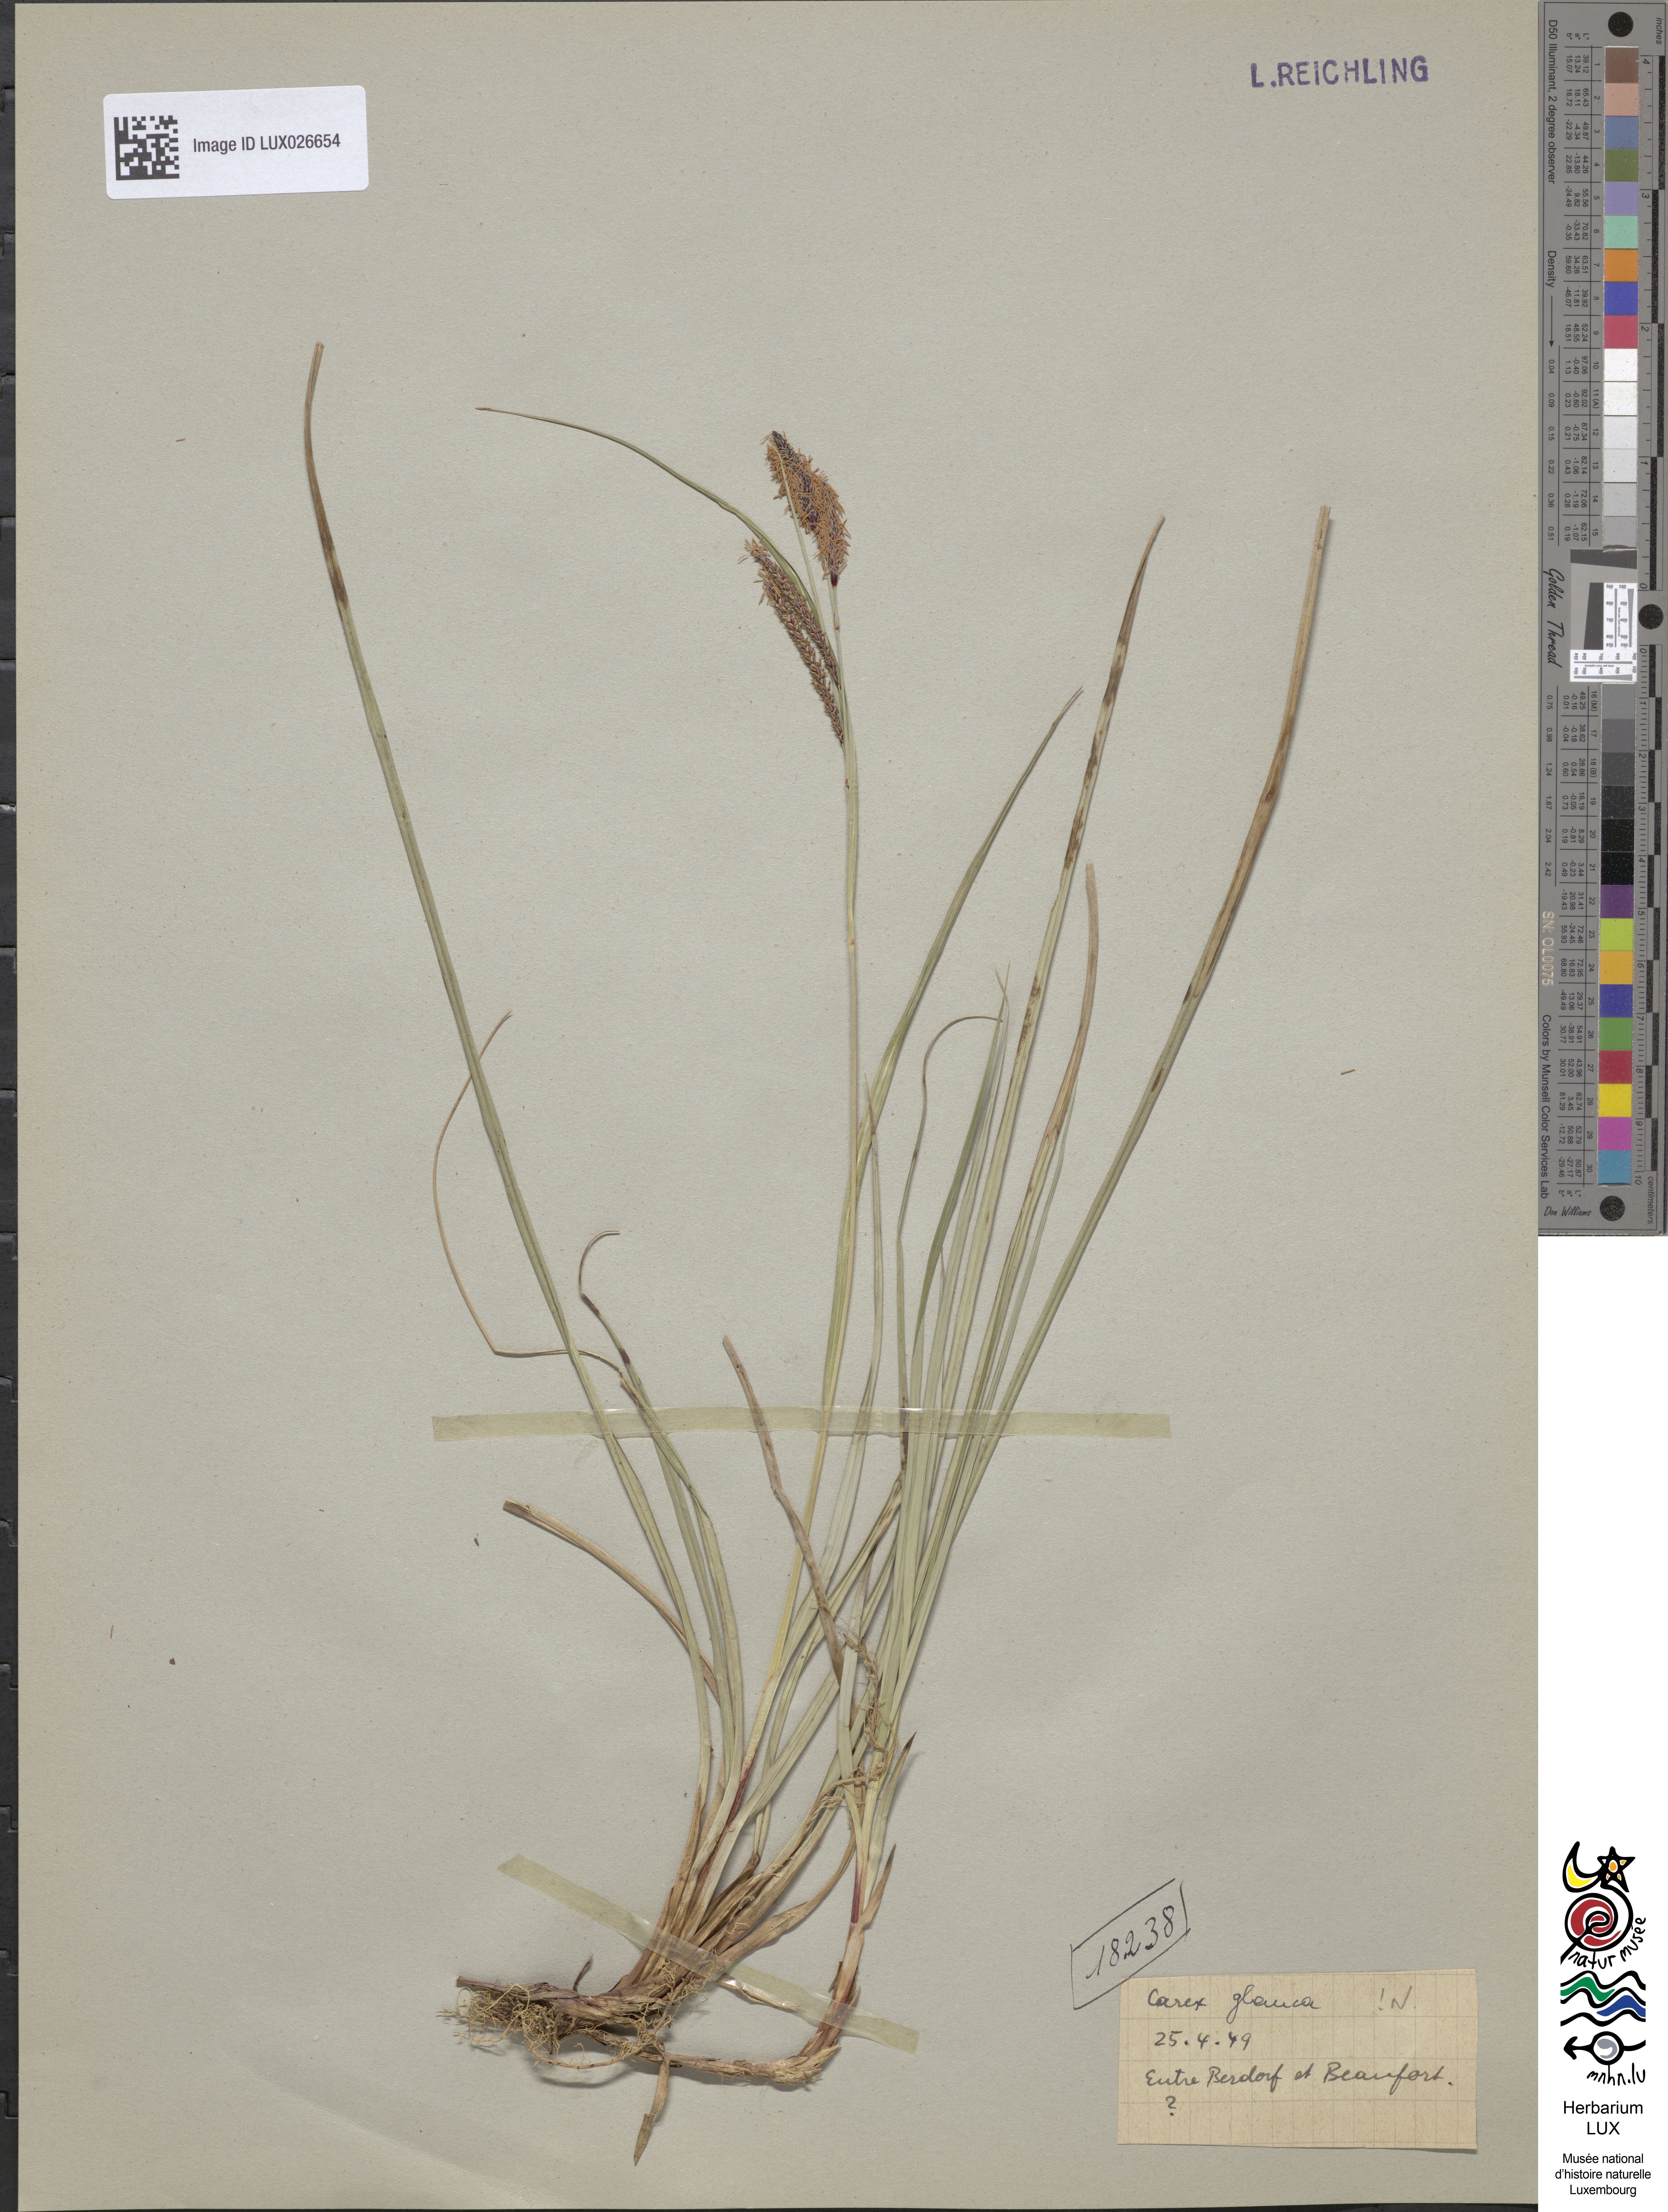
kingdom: Plantae
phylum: Tracheophyta
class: Liliopsida
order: Poales
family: Cyperaceae
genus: Carex
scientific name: Carex flacca
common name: Glaucous sedge
